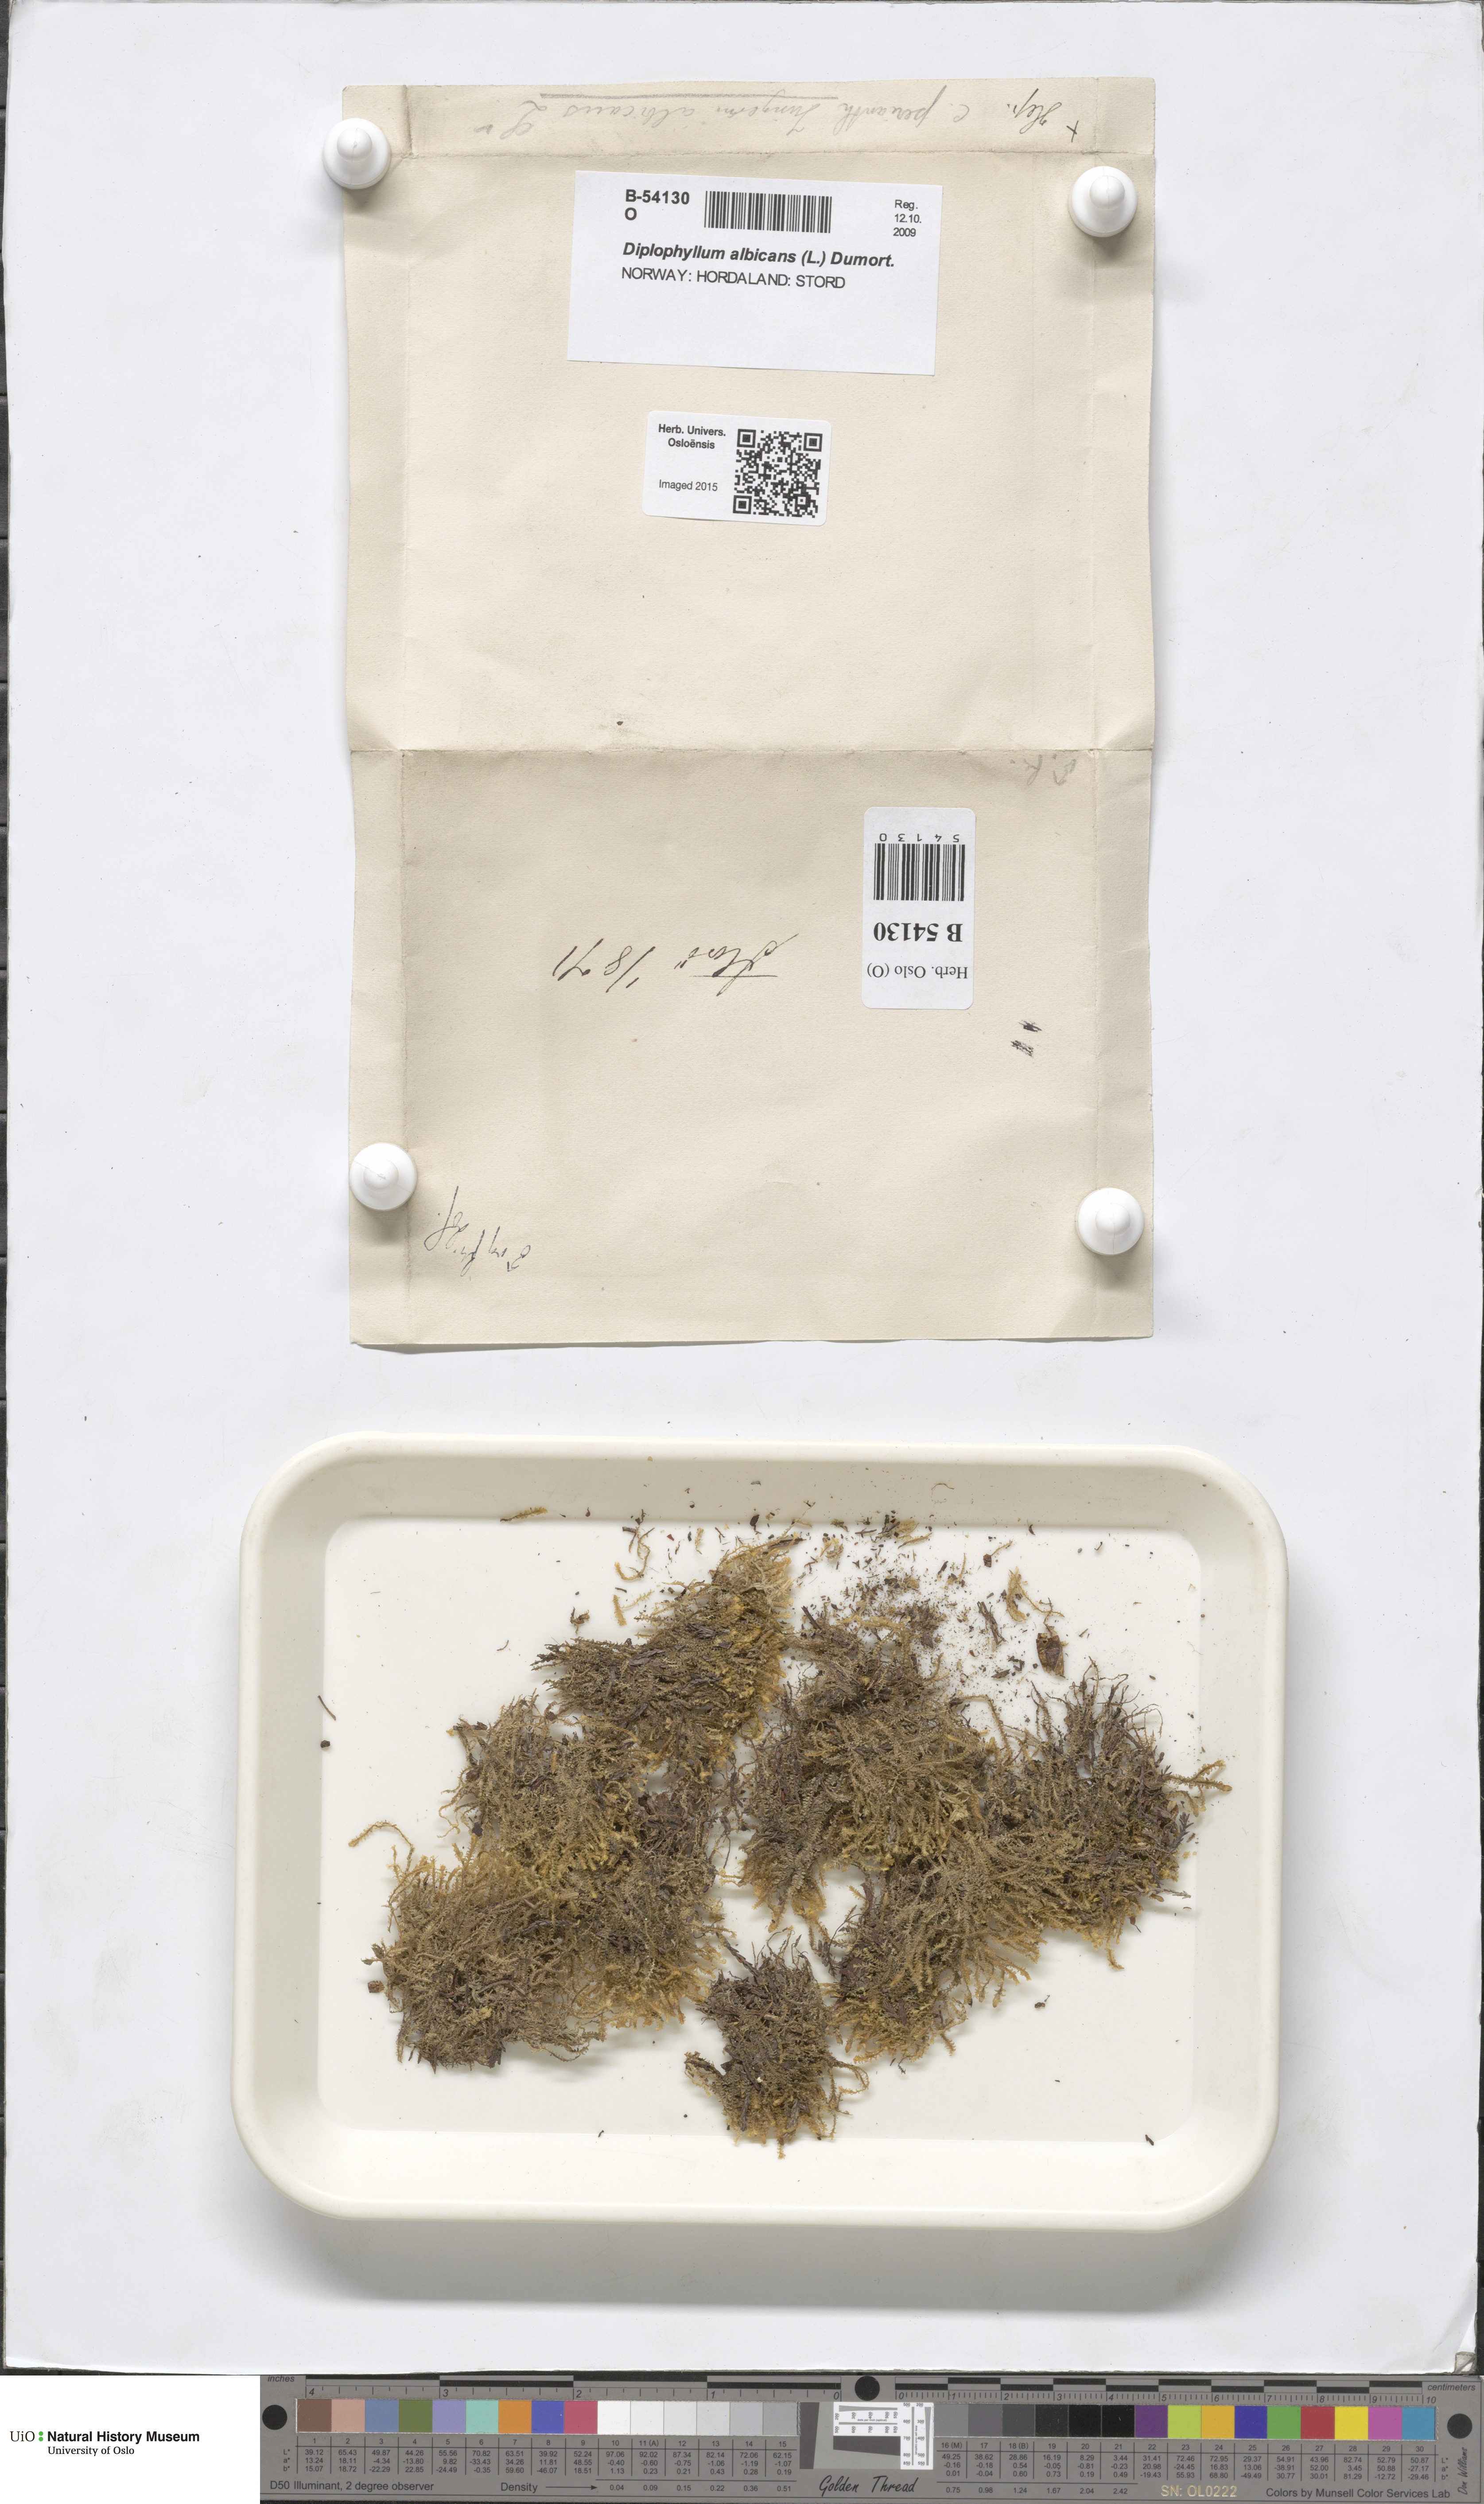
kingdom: Plantae
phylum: Marchantiophyta
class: Jungermanniopsida
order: Jungermanniales
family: Scapaniaceae
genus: Diplophyllum
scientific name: Diplophyllum albicans
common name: White earwort
